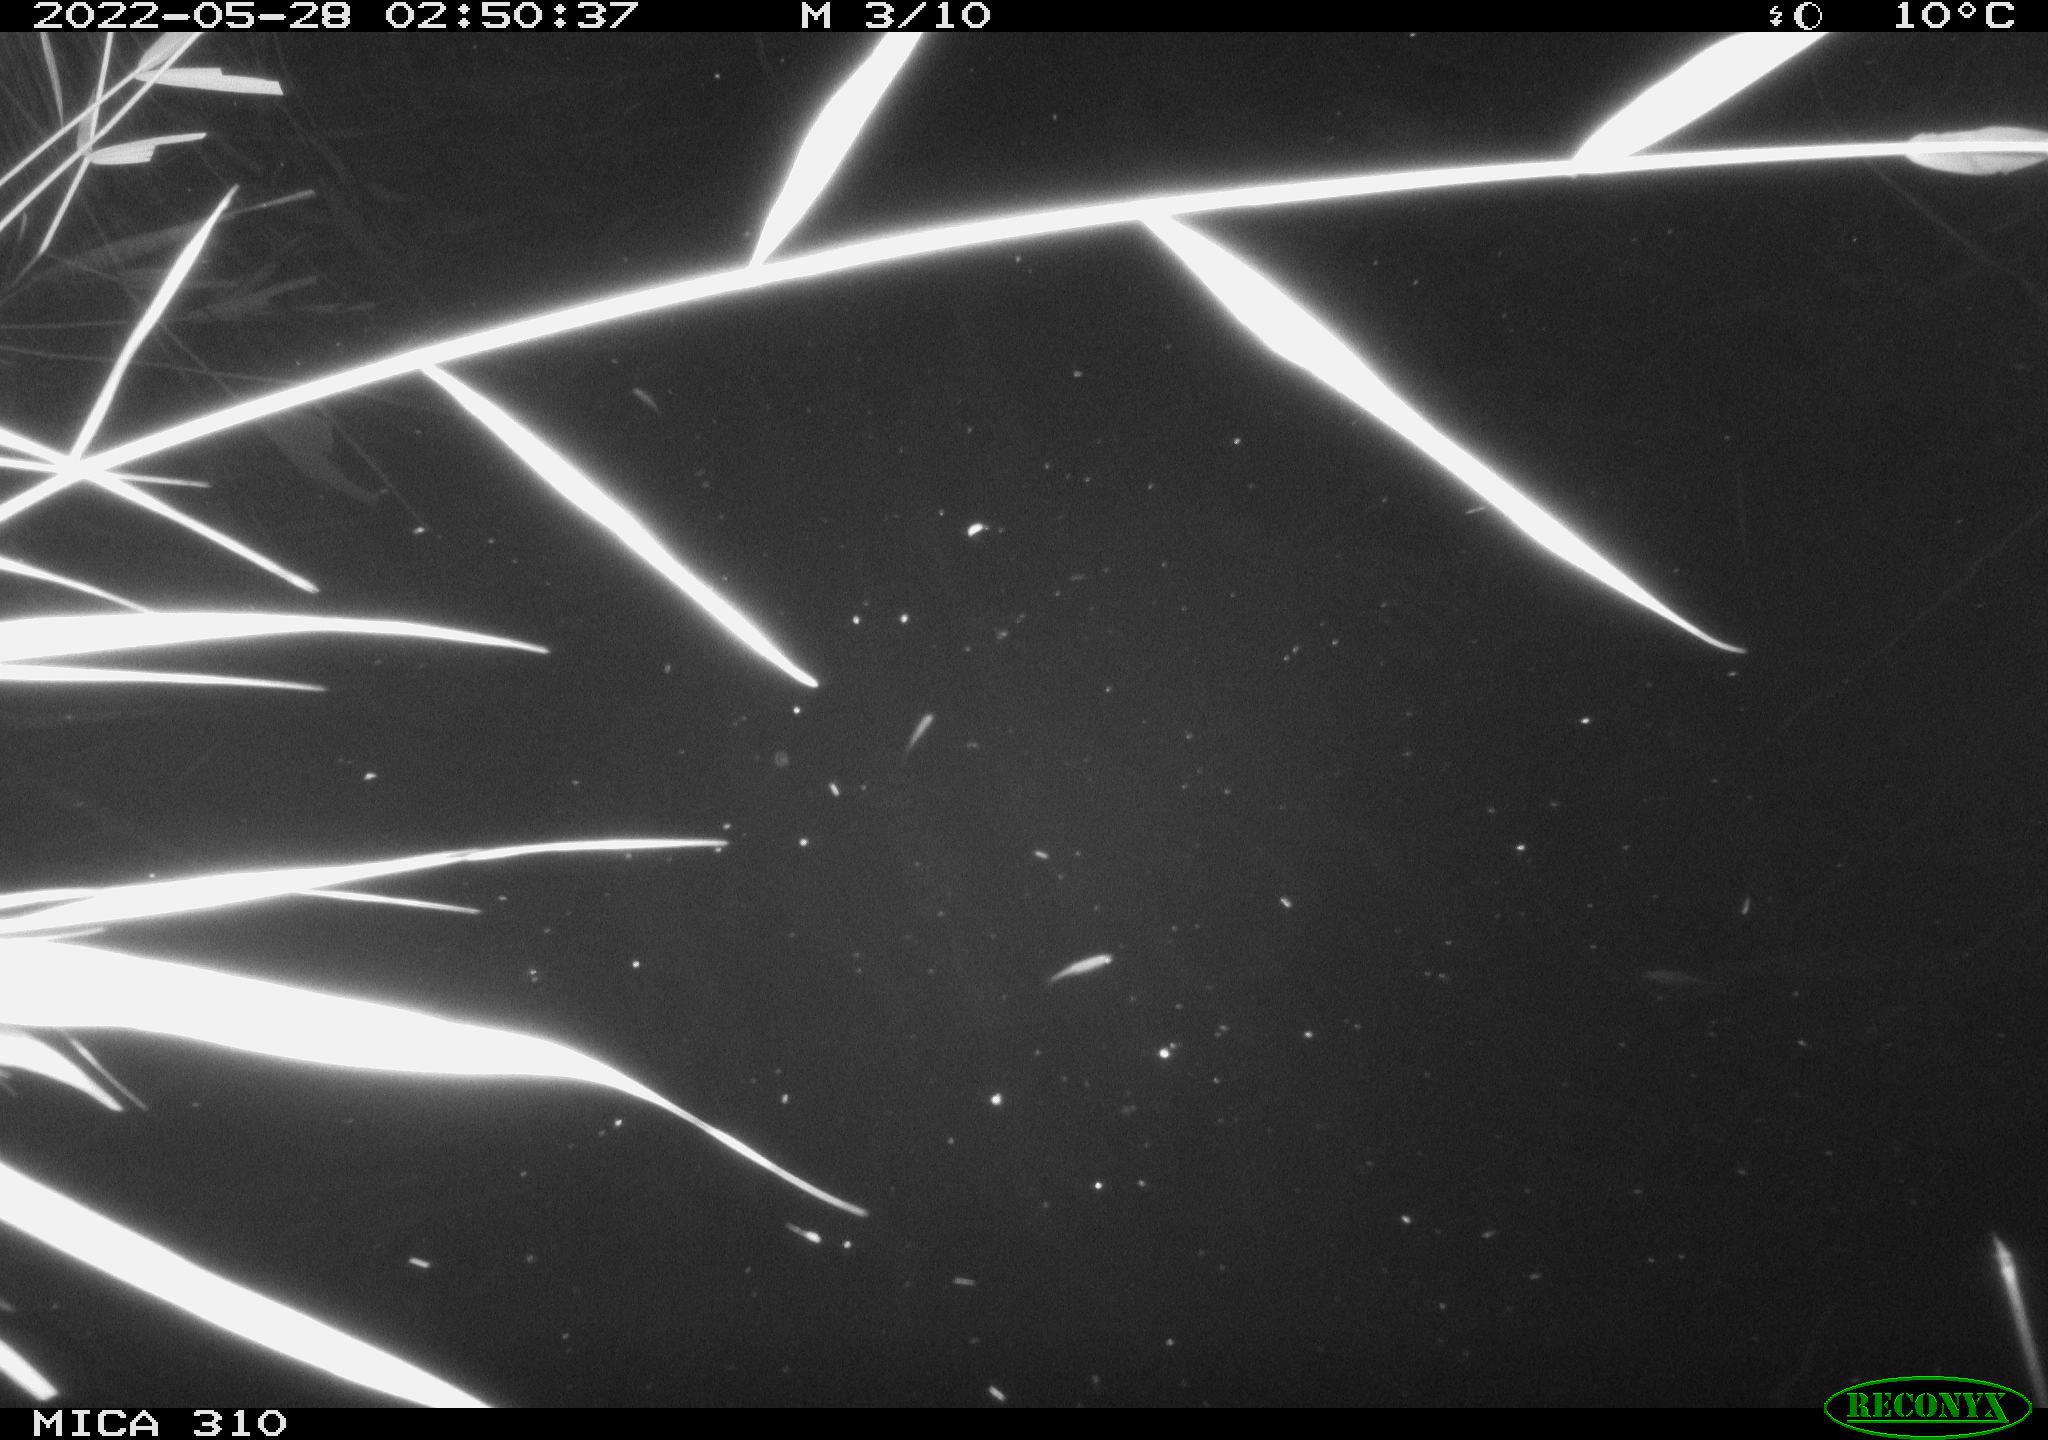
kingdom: Animalia
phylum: Chordata
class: Aves
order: Anseriformes
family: Anatidae
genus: Anas
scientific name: Anas platyrhynchos
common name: Mallard
